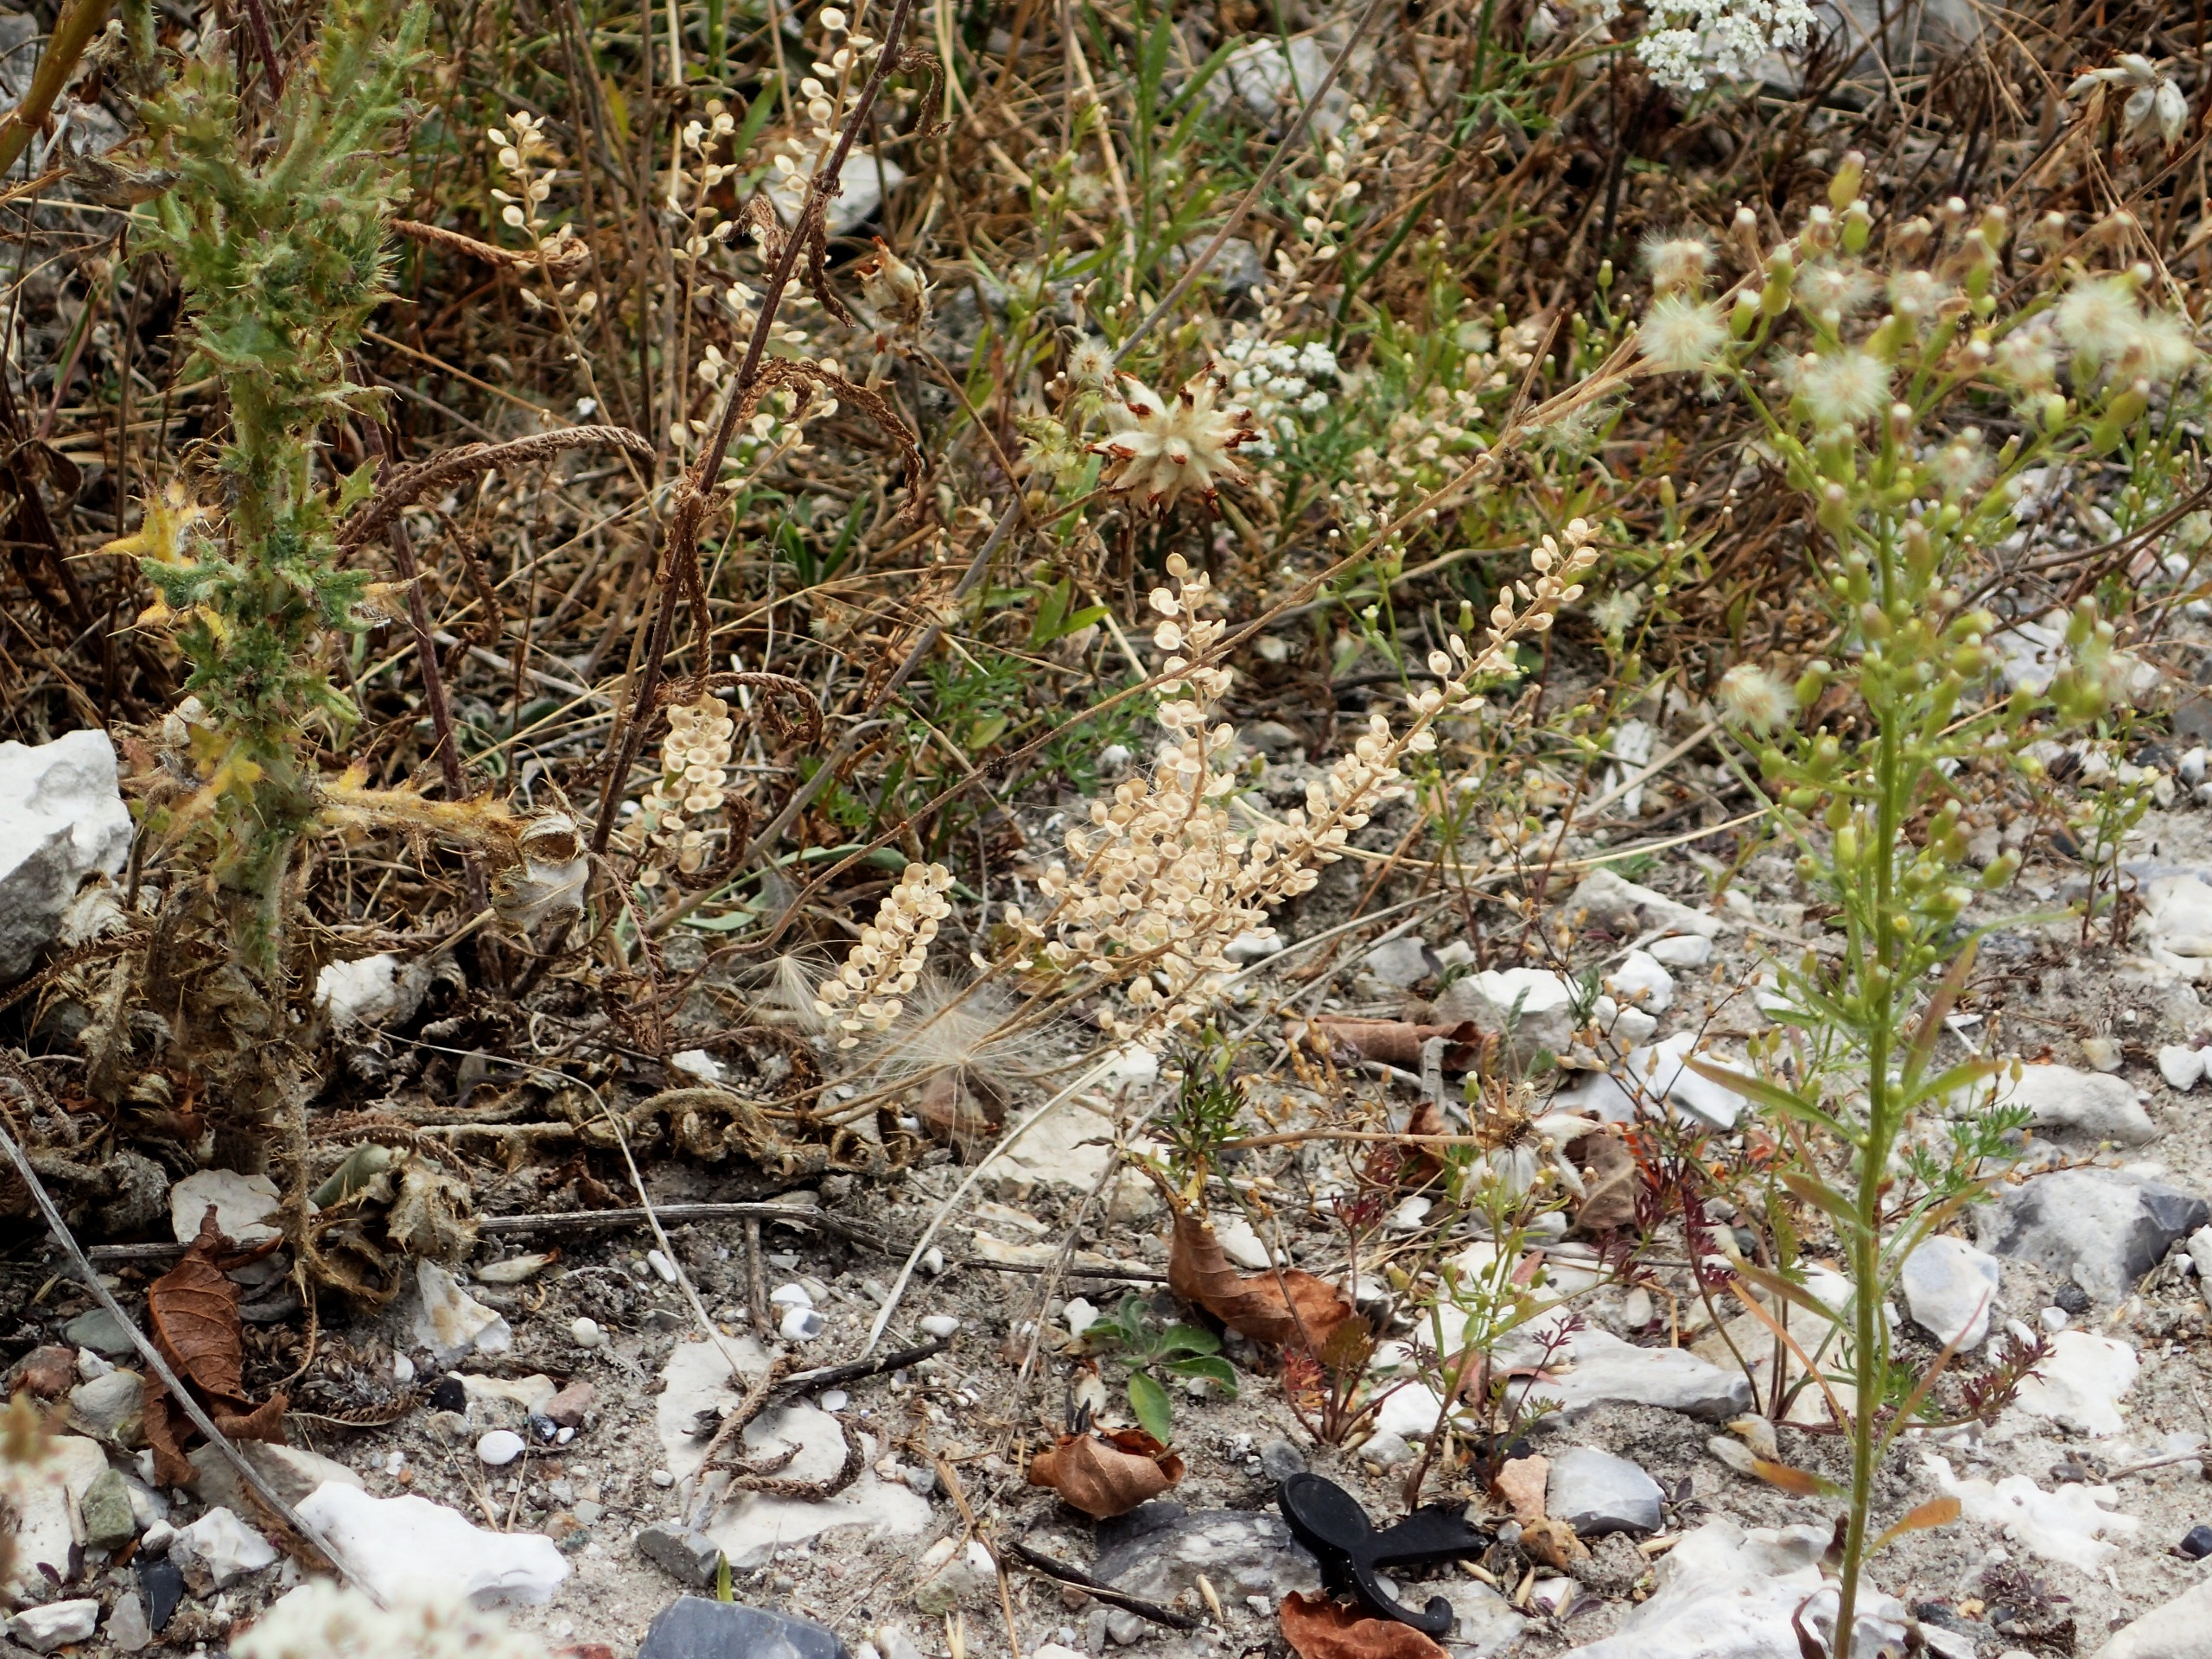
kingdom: Plantae
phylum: Tracheophyta
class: Magnoliopsida
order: Brassicales
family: Brassicaceae
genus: Alyssum
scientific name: Alyssum alyssoides
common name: Grådodder
